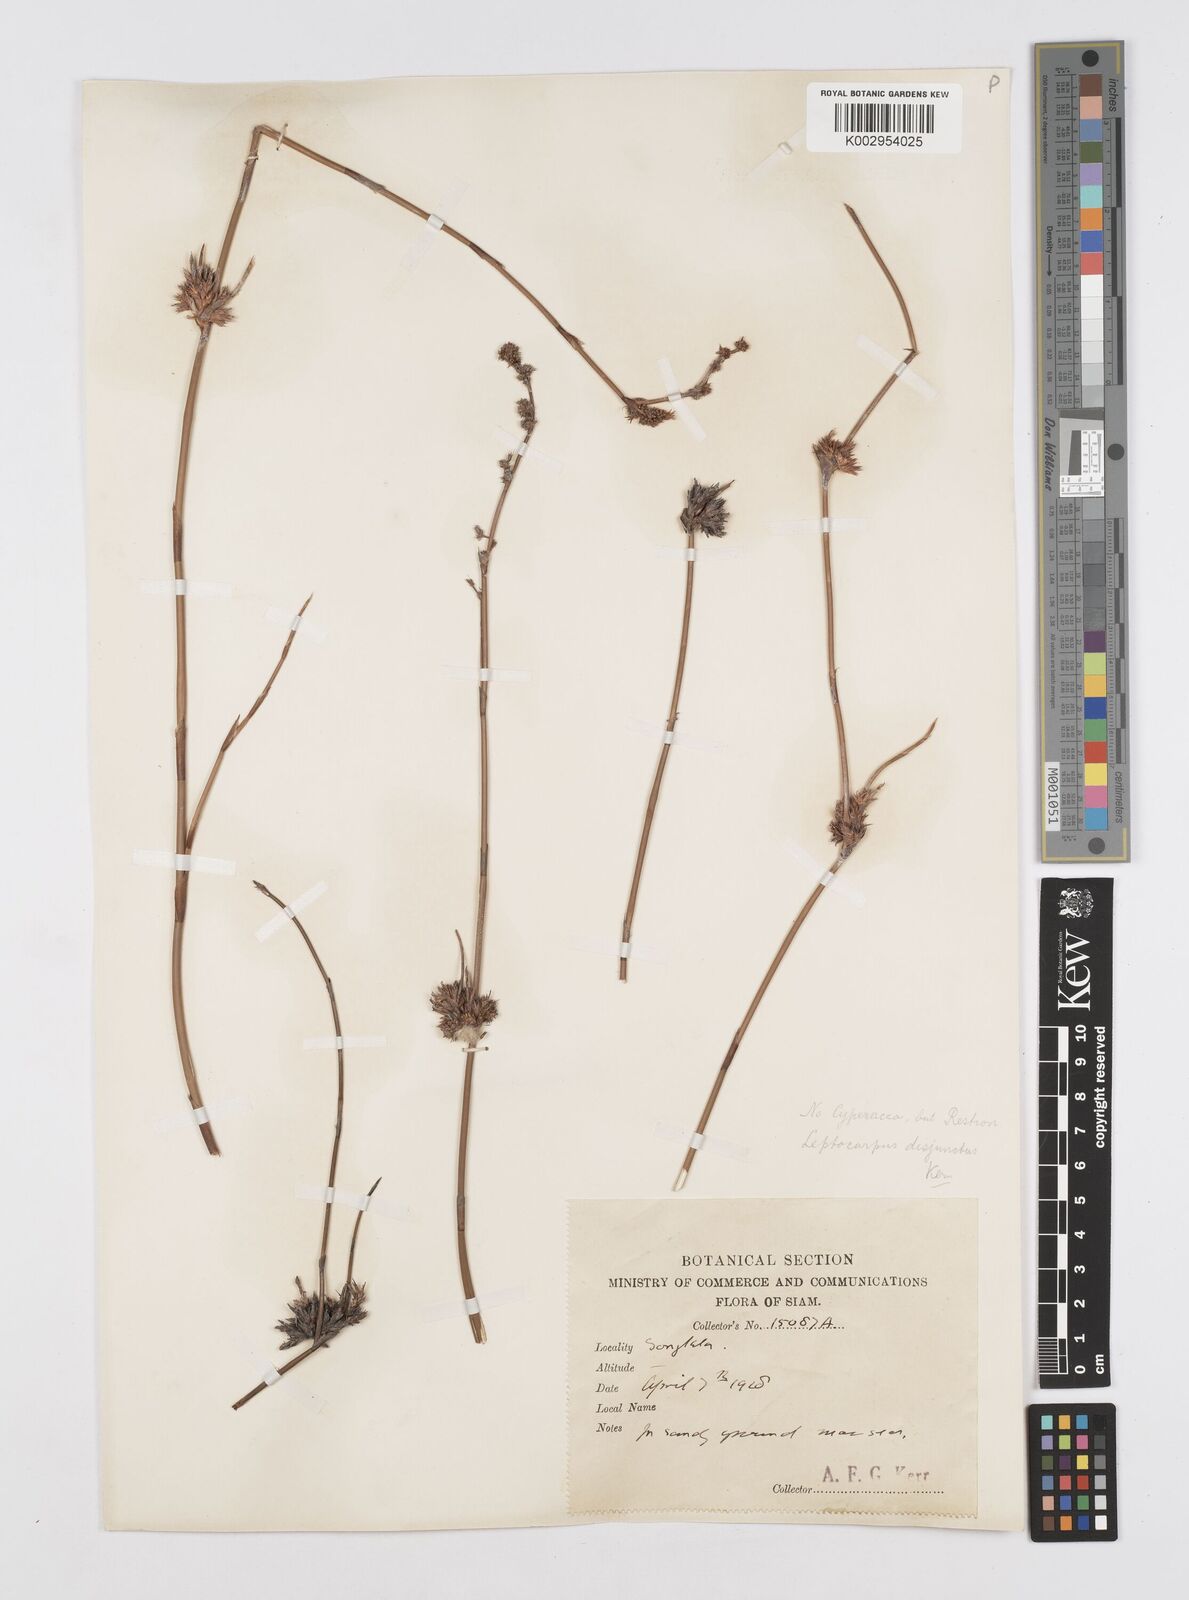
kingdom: Plantae
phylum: Tracheophyta
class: Liliopsida
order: Poales
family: Restionaceae
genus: Dapsilanthus
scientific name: Dapsilanthus disjunctus
